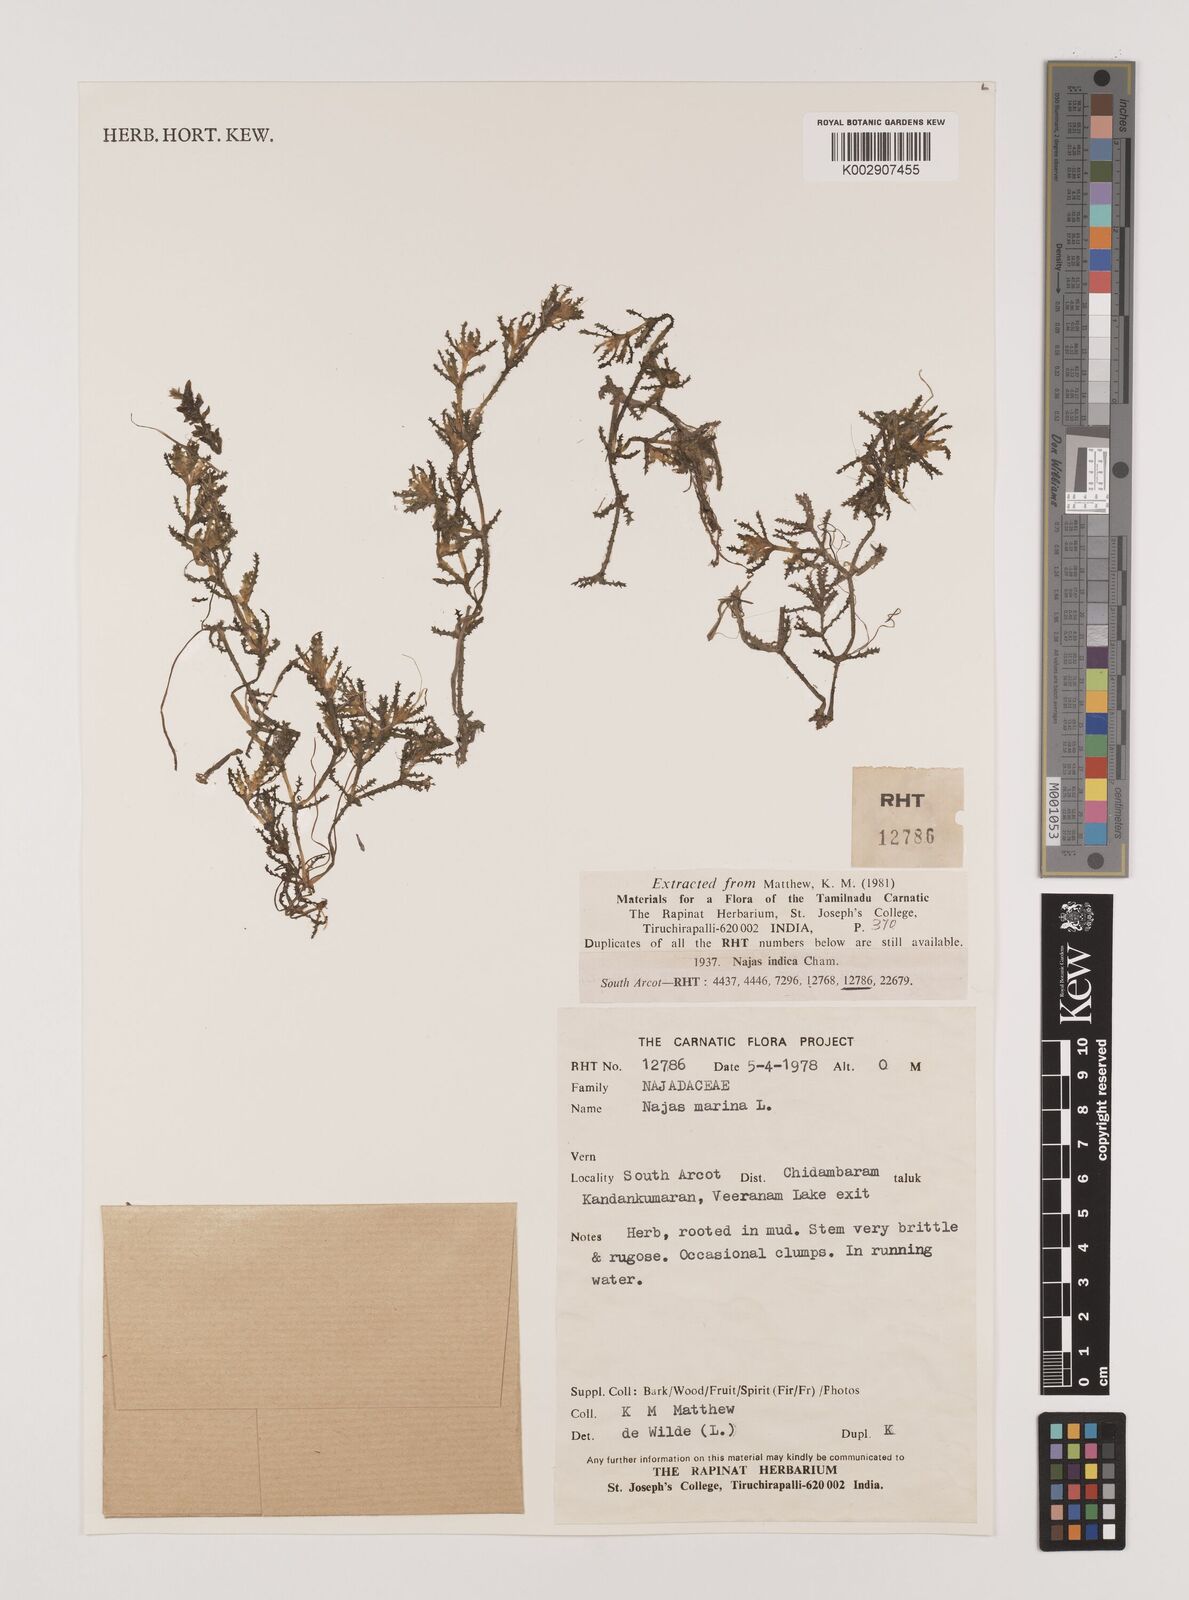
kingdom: Plantae
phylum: Tracheophyta
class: Liliopsida
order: Alismatales
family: Hydrocharitaceae
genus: Najas
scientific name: Najas marina
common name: Holly-leaved naiad
